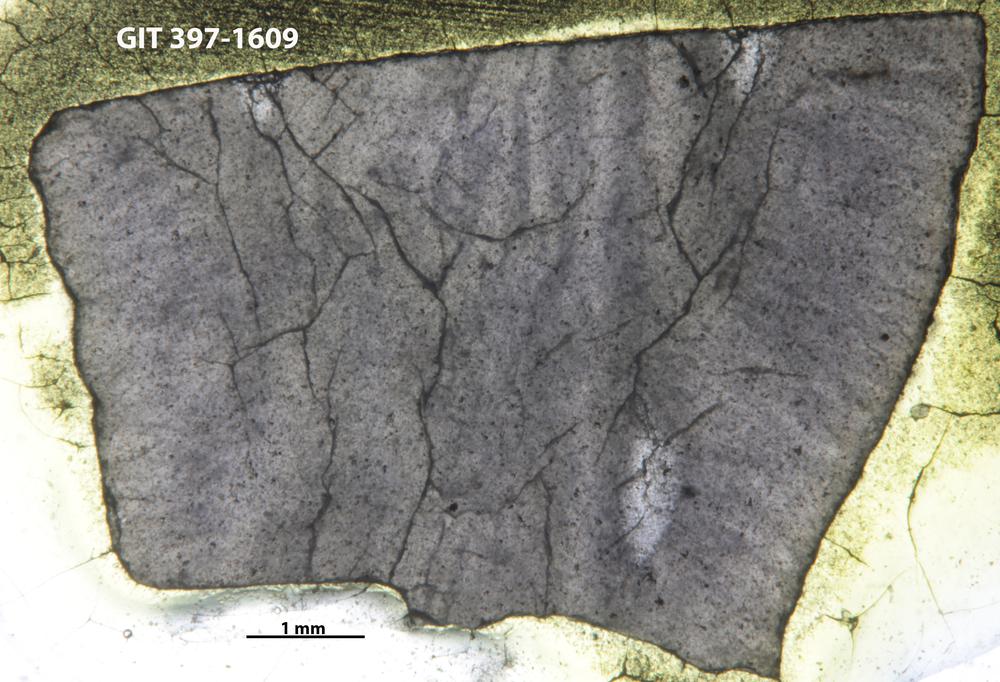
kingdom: Animalia
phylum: Cnidaria
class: Anthozoa
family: Streptelasmatidae
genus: Rhegmaphyllum
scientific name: Rhegmaphyllum
